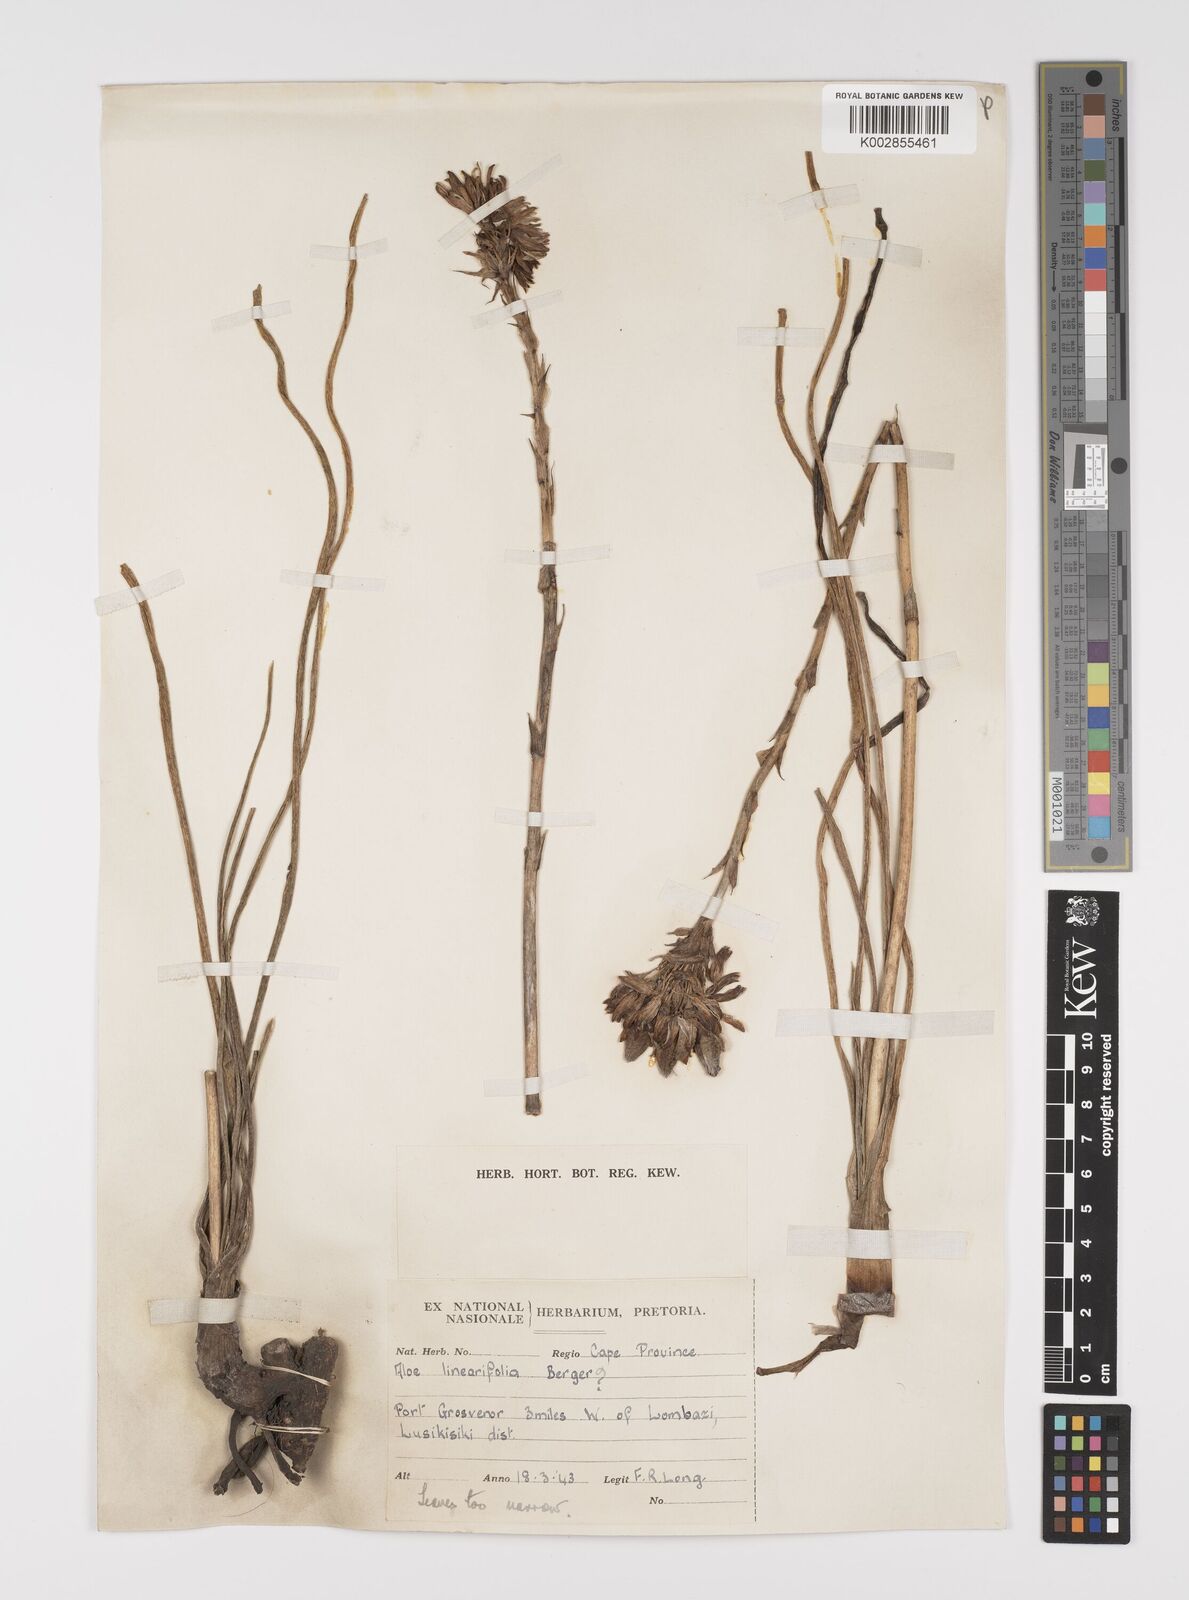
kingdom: Plantae
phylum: Tracheophyta
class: Liliopsida
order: Asparagales
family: Asphodelaceae
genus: Aloe
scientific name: Aloe linearifolia
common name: Dwarf yellow grass aloe
